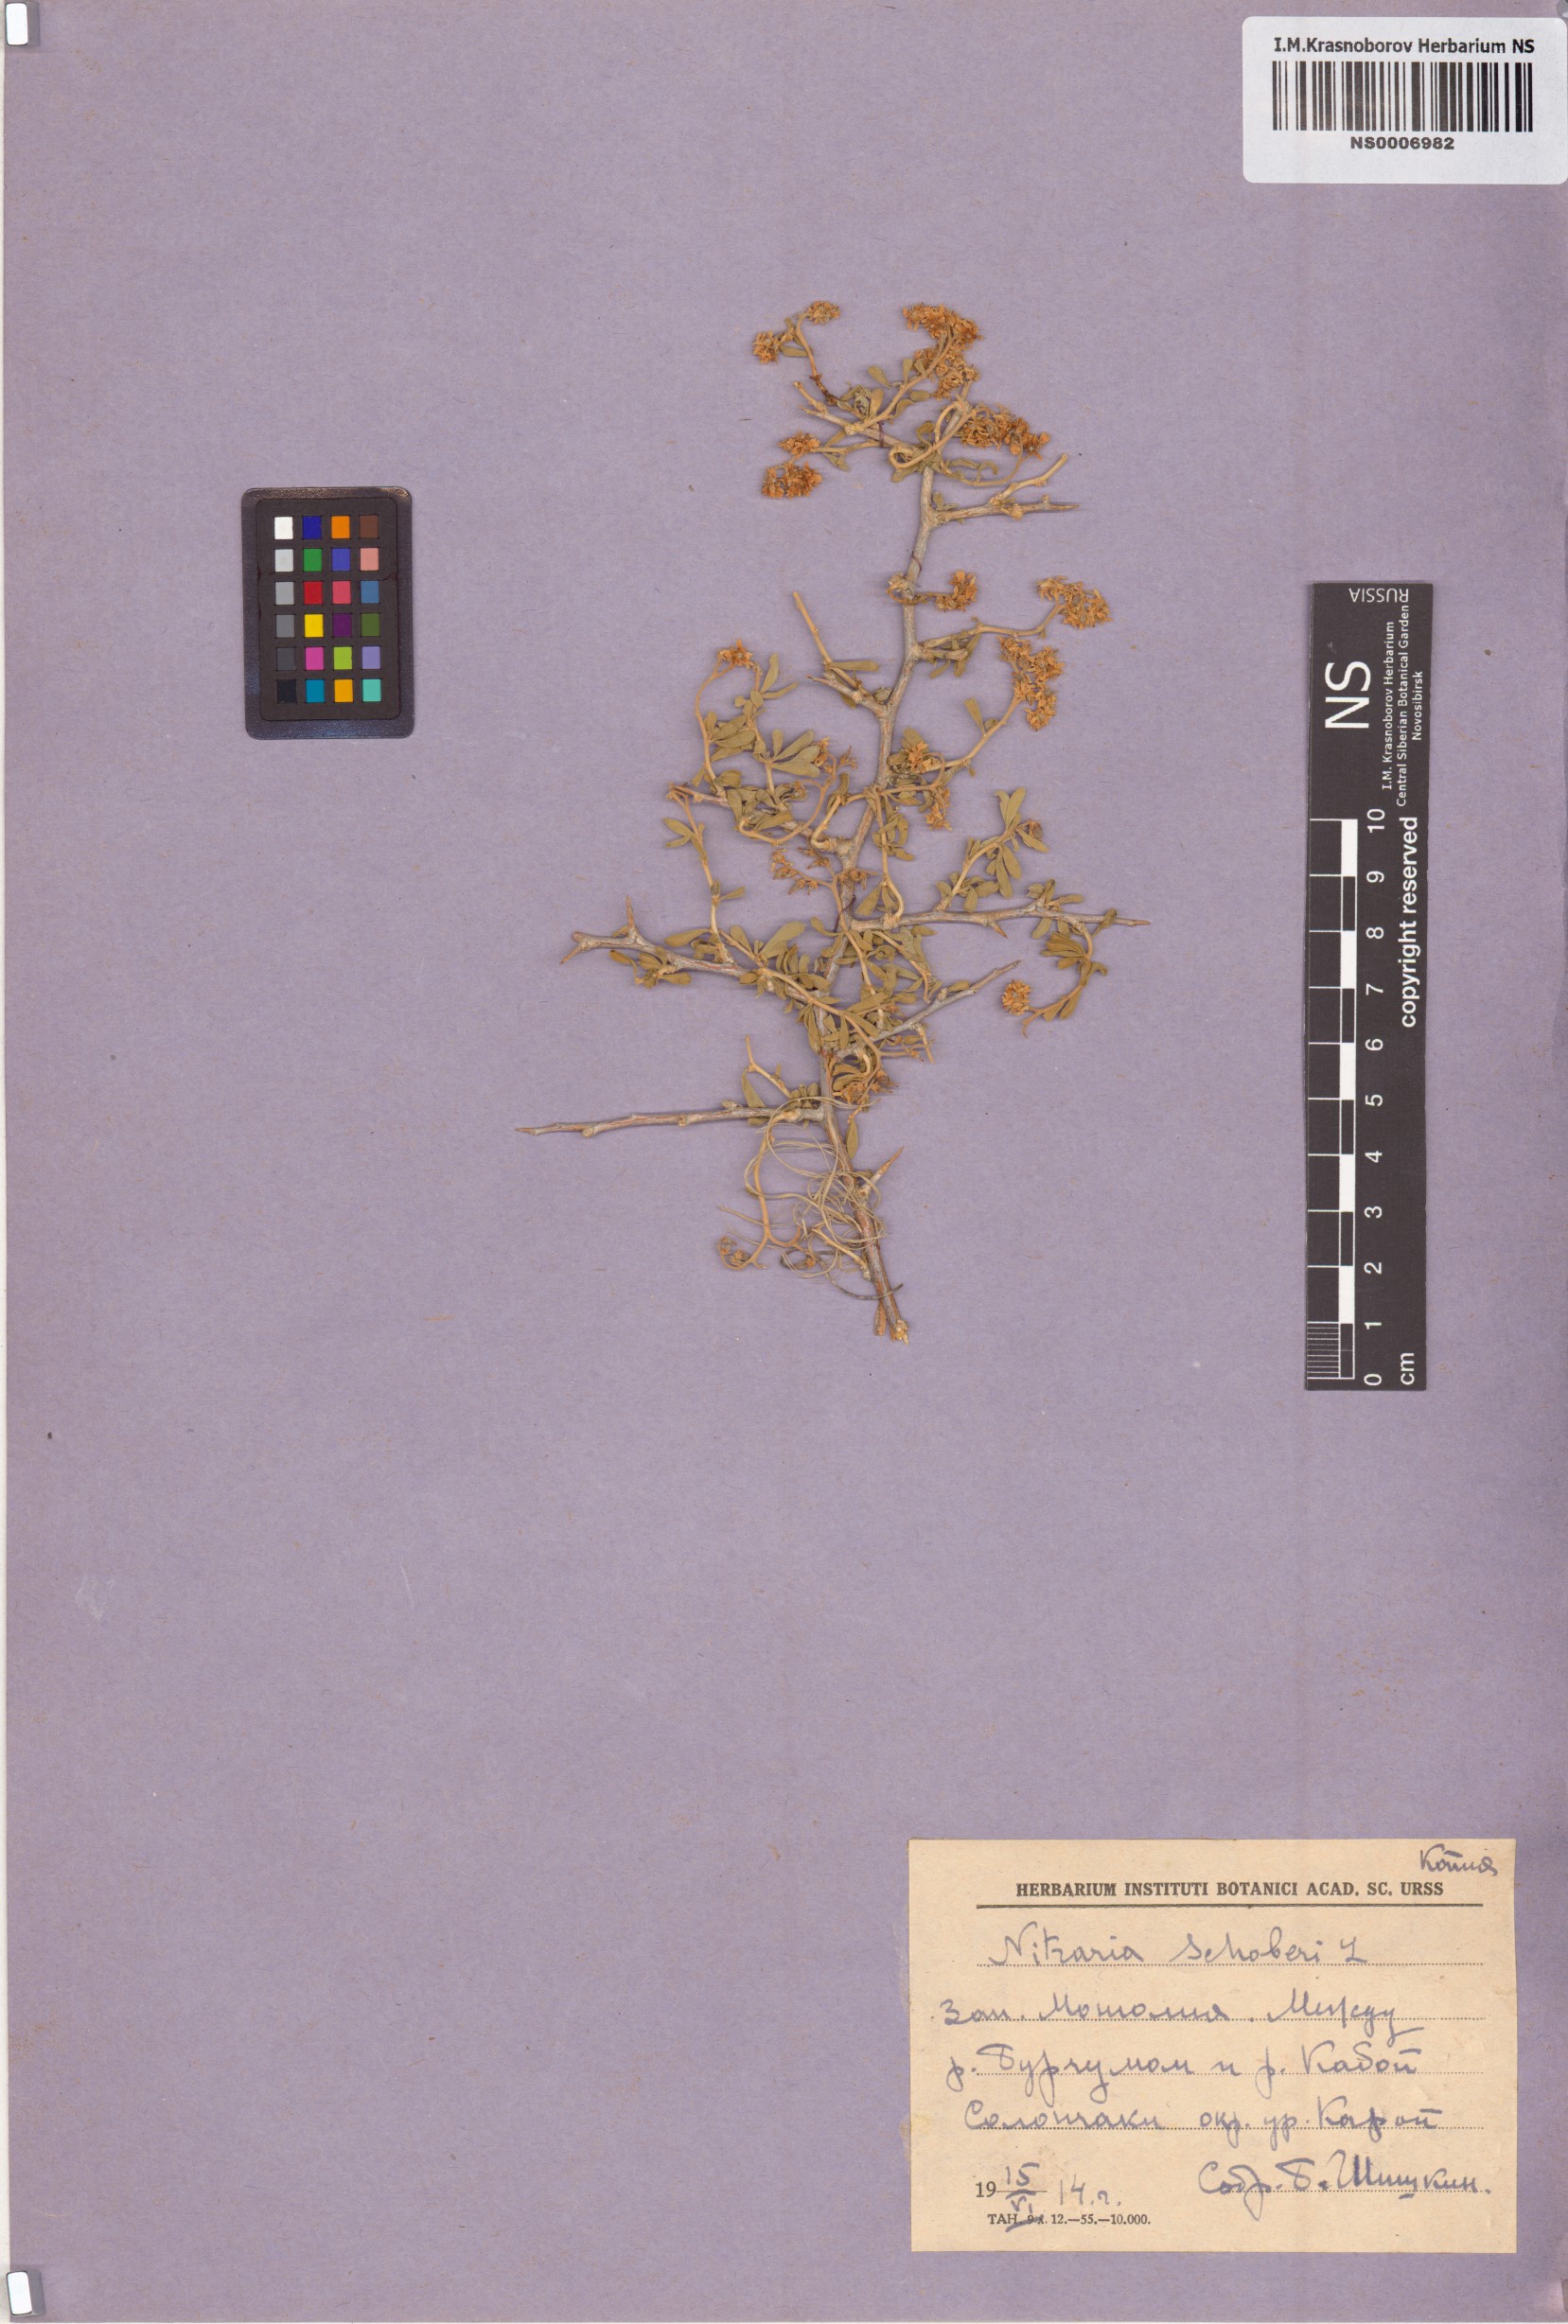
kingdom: Plantae
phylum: Tracheophyta
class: Magnoliopsida
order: Sapindales
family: Nitrariaceae
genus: Nitraria
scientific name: Nitraria schoberi
